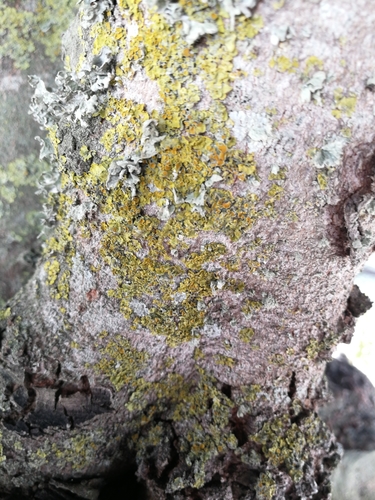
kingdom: Fungi
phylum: Ascomycota
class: Lecanoromycetes
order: Teloschistales
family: Teloschistaceae
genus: Xanthoria
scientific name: Xanthoria parietina
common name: Common orange lichen
